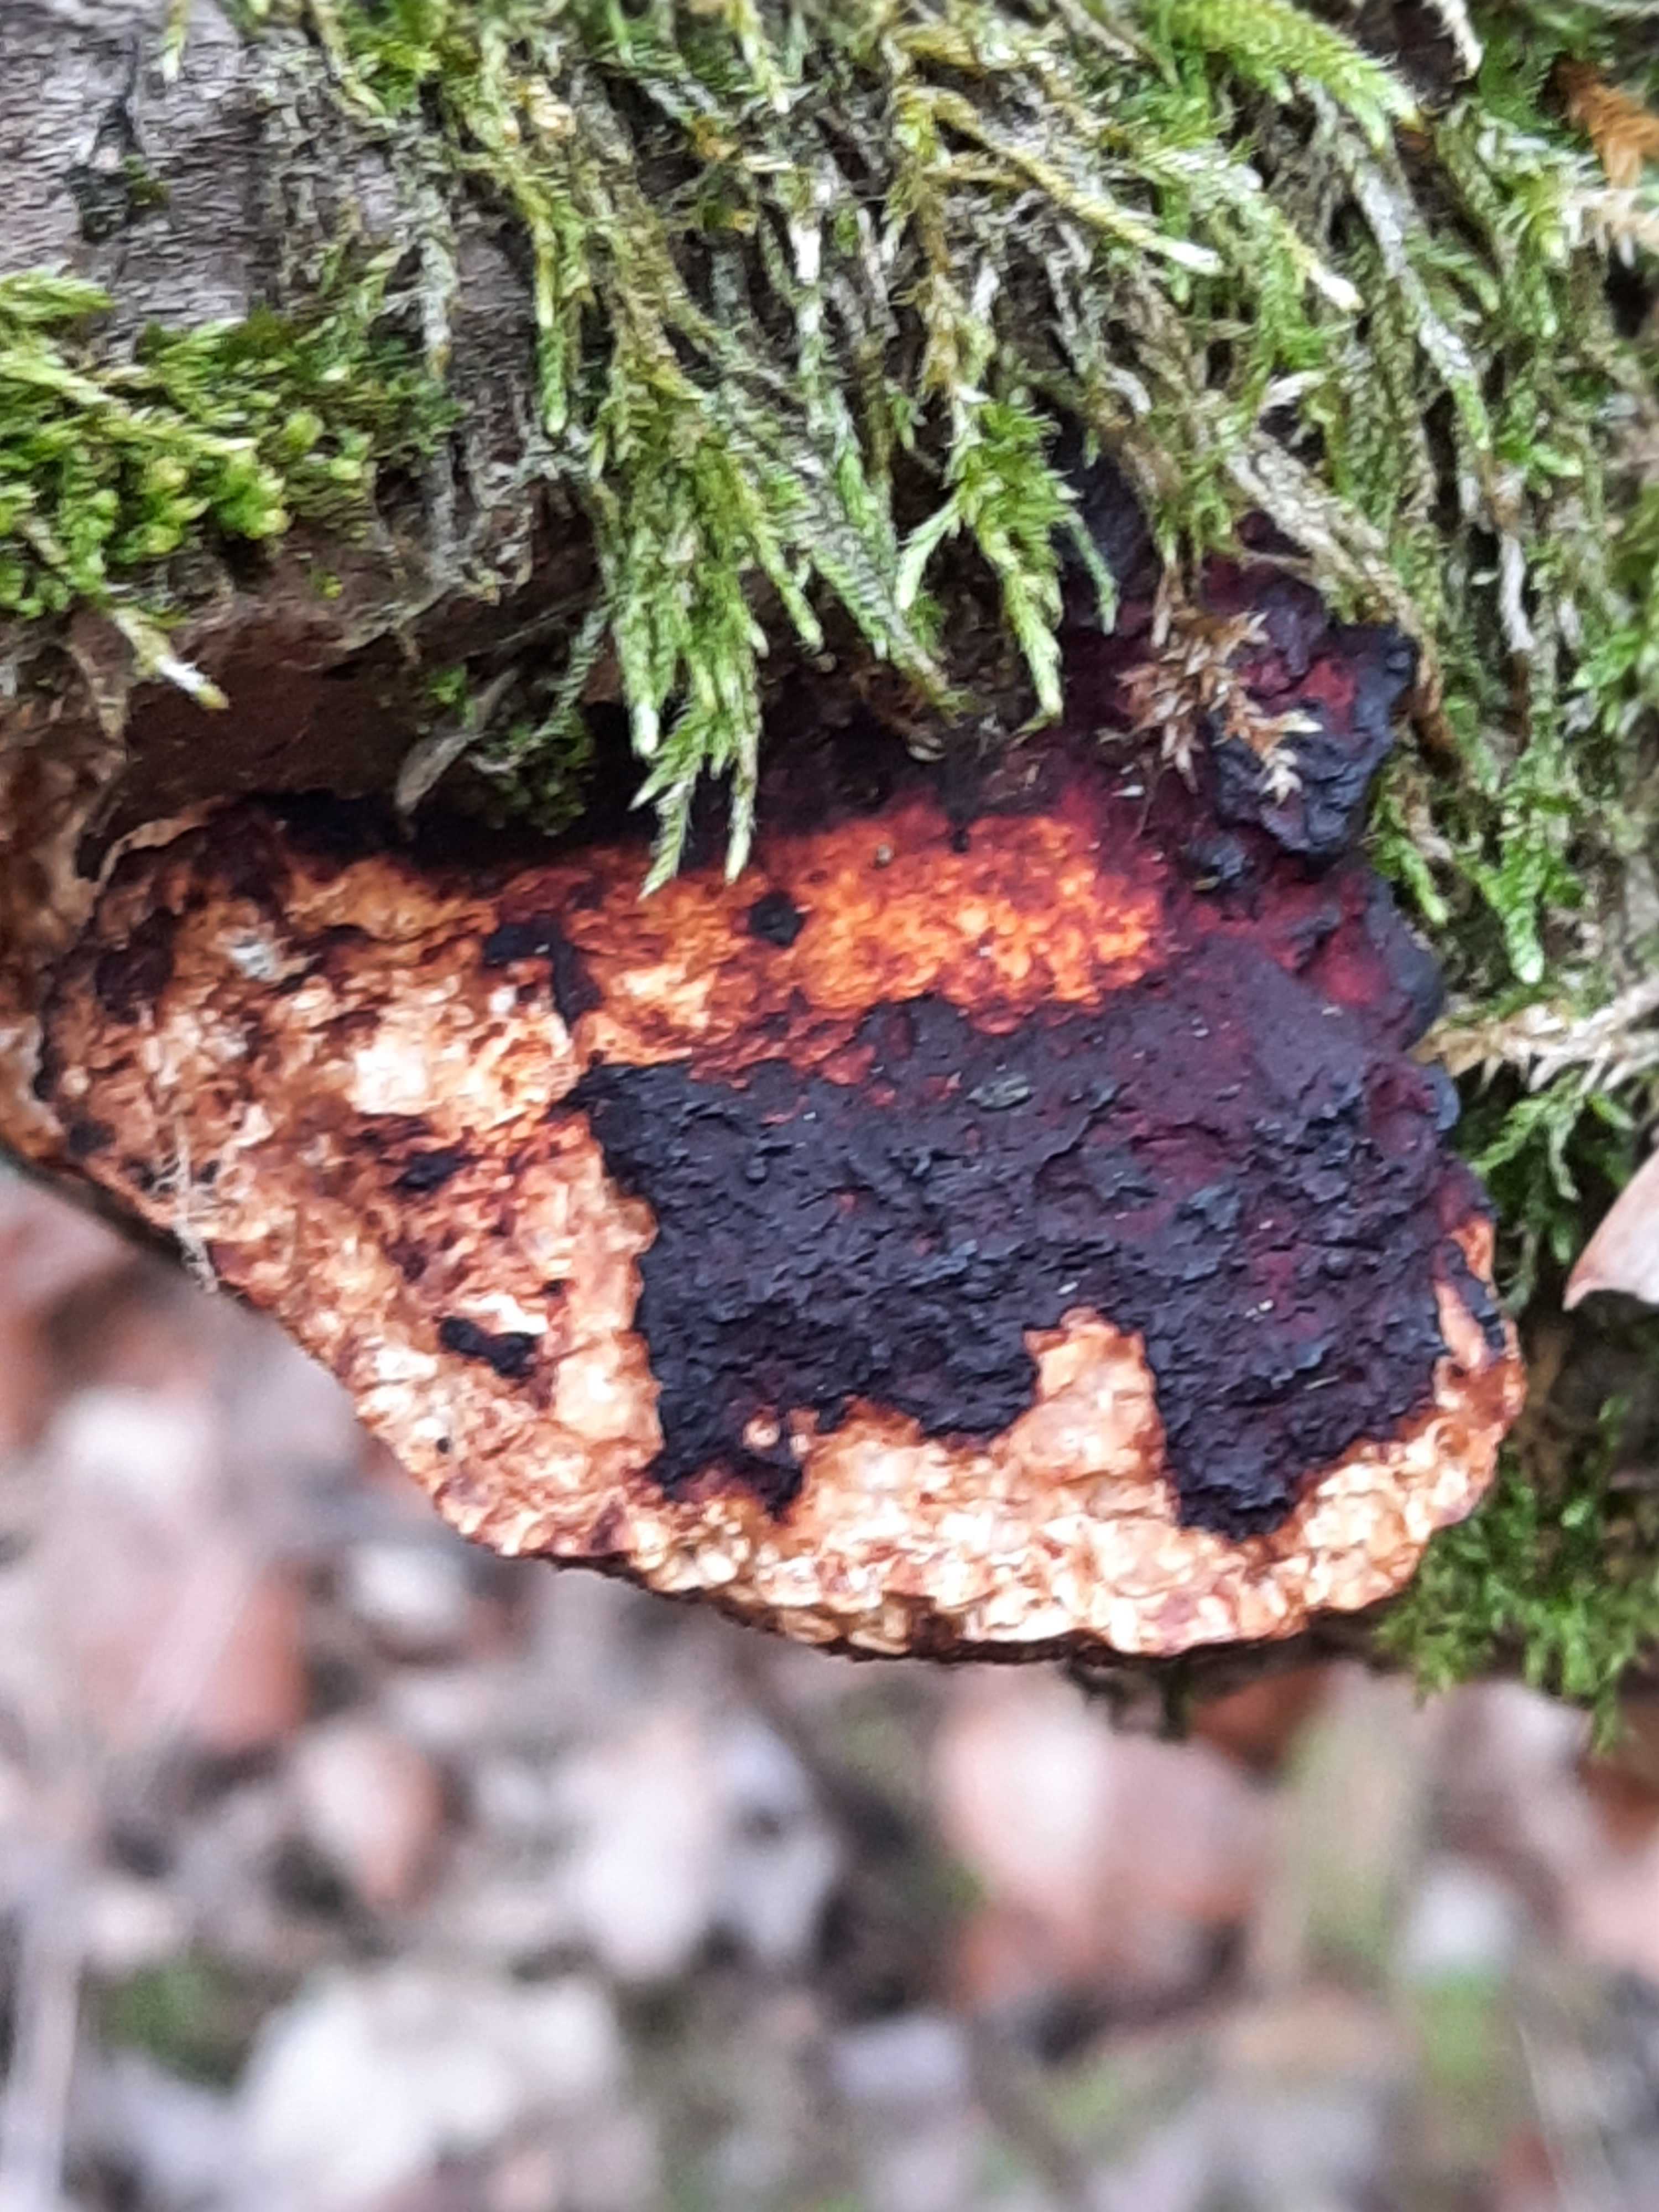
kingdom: Fungi
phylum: Basidiomycota
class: Agaricomycetes
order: Polyporales
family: Polyporaceae
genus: Daedaleopsis
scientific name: Daedaleopsis confragosa
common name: rødmende læderporesvamp
